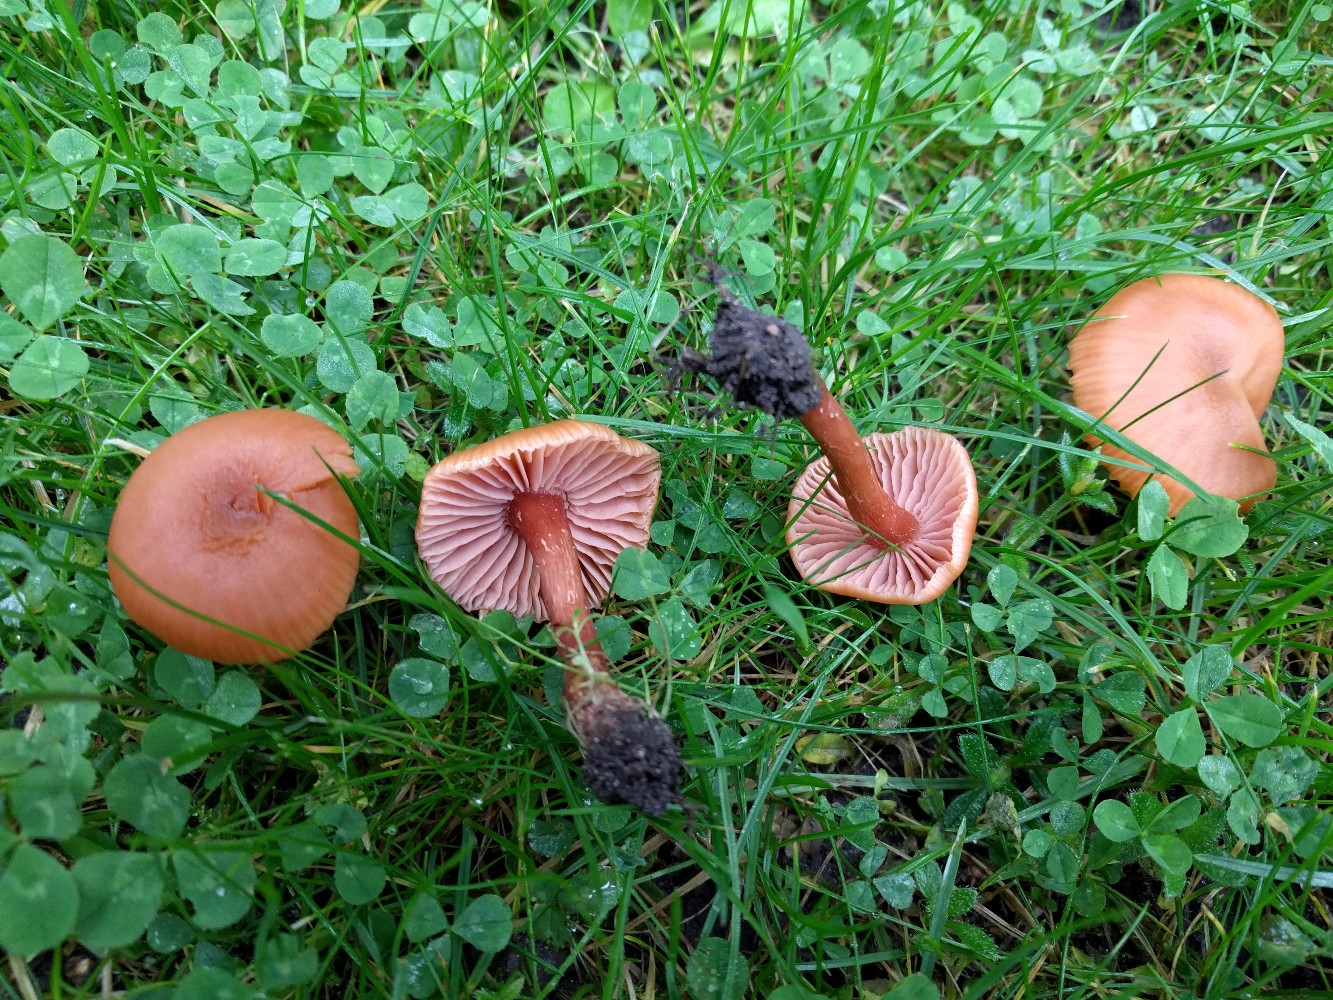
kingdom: Fungi
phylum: Basidiomycota
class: Agaricomycetes
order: Agaricales
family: Hydnangiaceae
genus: Laccaria
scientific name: Laccaria laccata
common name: rød ametysthat
